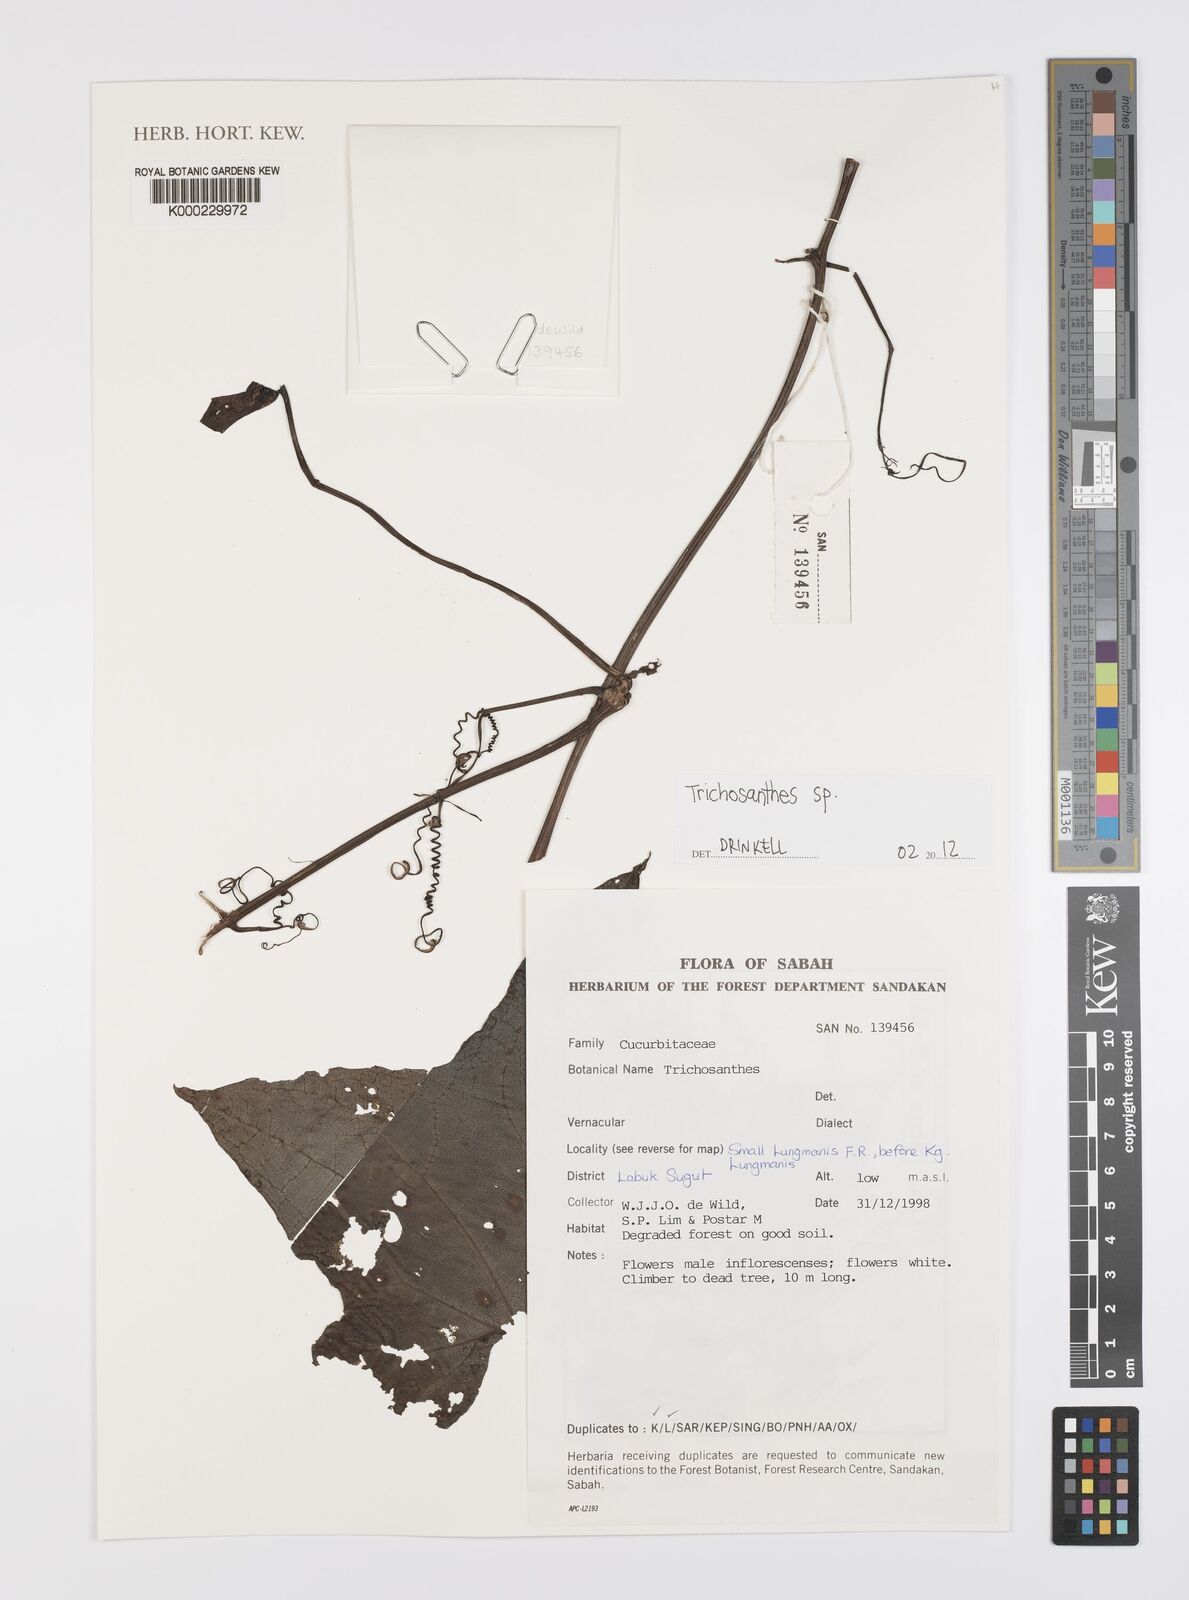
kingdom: Plantae
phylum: Tracheophyta
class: Magnoliopsida
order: Cucurbitales
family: Cucurbitaceae
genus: Trichosanthes
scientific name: Trichosanthes
